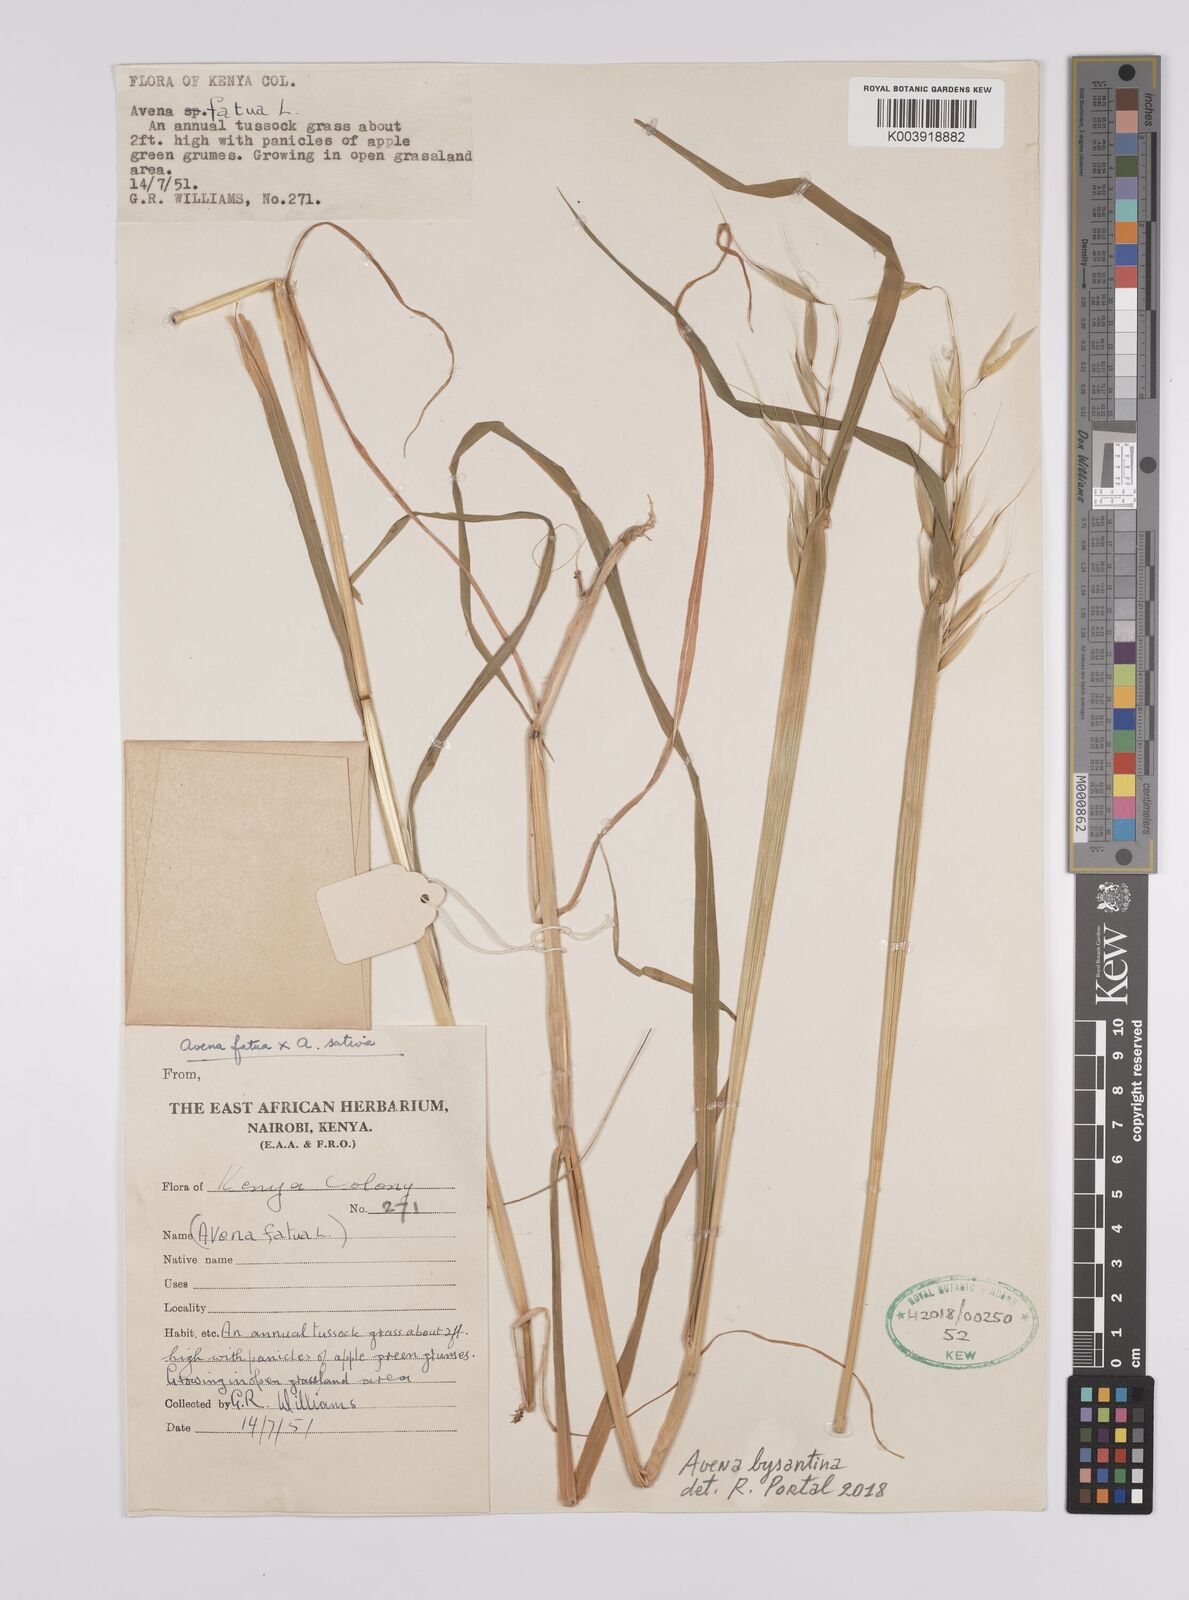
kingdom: Plantae
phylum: Tracheophyta
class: Liliopsida
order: Poales
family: Poaceae
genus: Avena
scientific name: Avena byzantina
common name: Algerian oat
